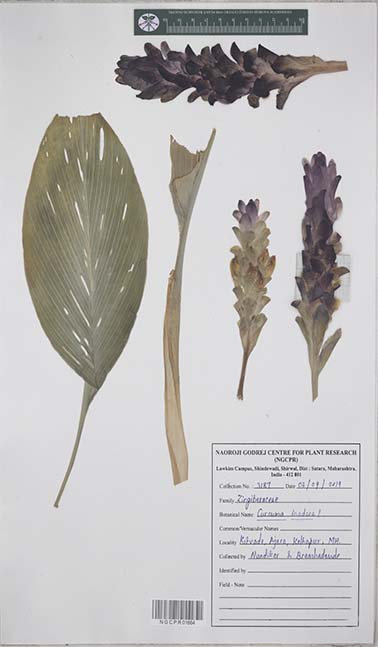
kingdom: Plantae
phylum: Tracheophyta
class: Liliopsida
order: Zingiberales
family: Zingiberaceae
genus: Curcuma
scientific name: Curcuma inodora
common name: Hidden lily
